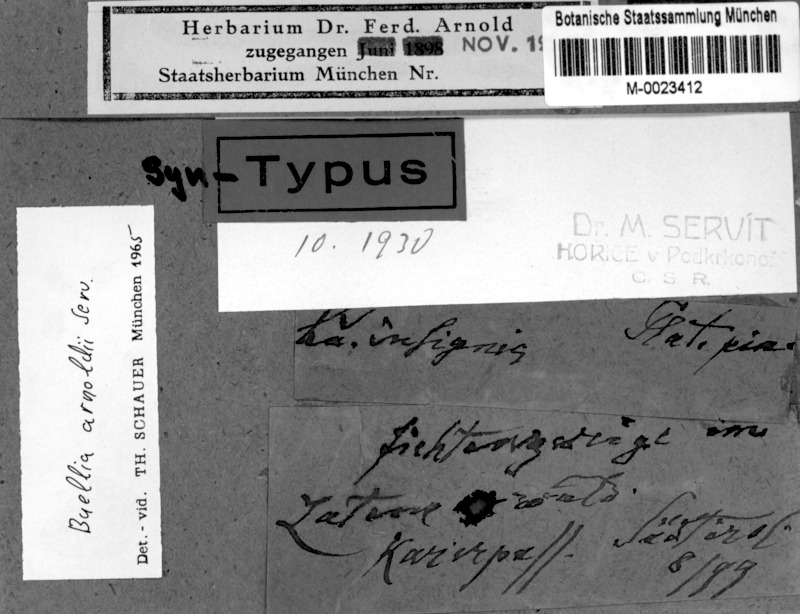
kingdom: Fungi
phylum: Ascomycota
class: Lecanoromycetes
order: Caliciales
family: Caliciaceae
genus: Buellia
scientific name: Buellia arnoldii
